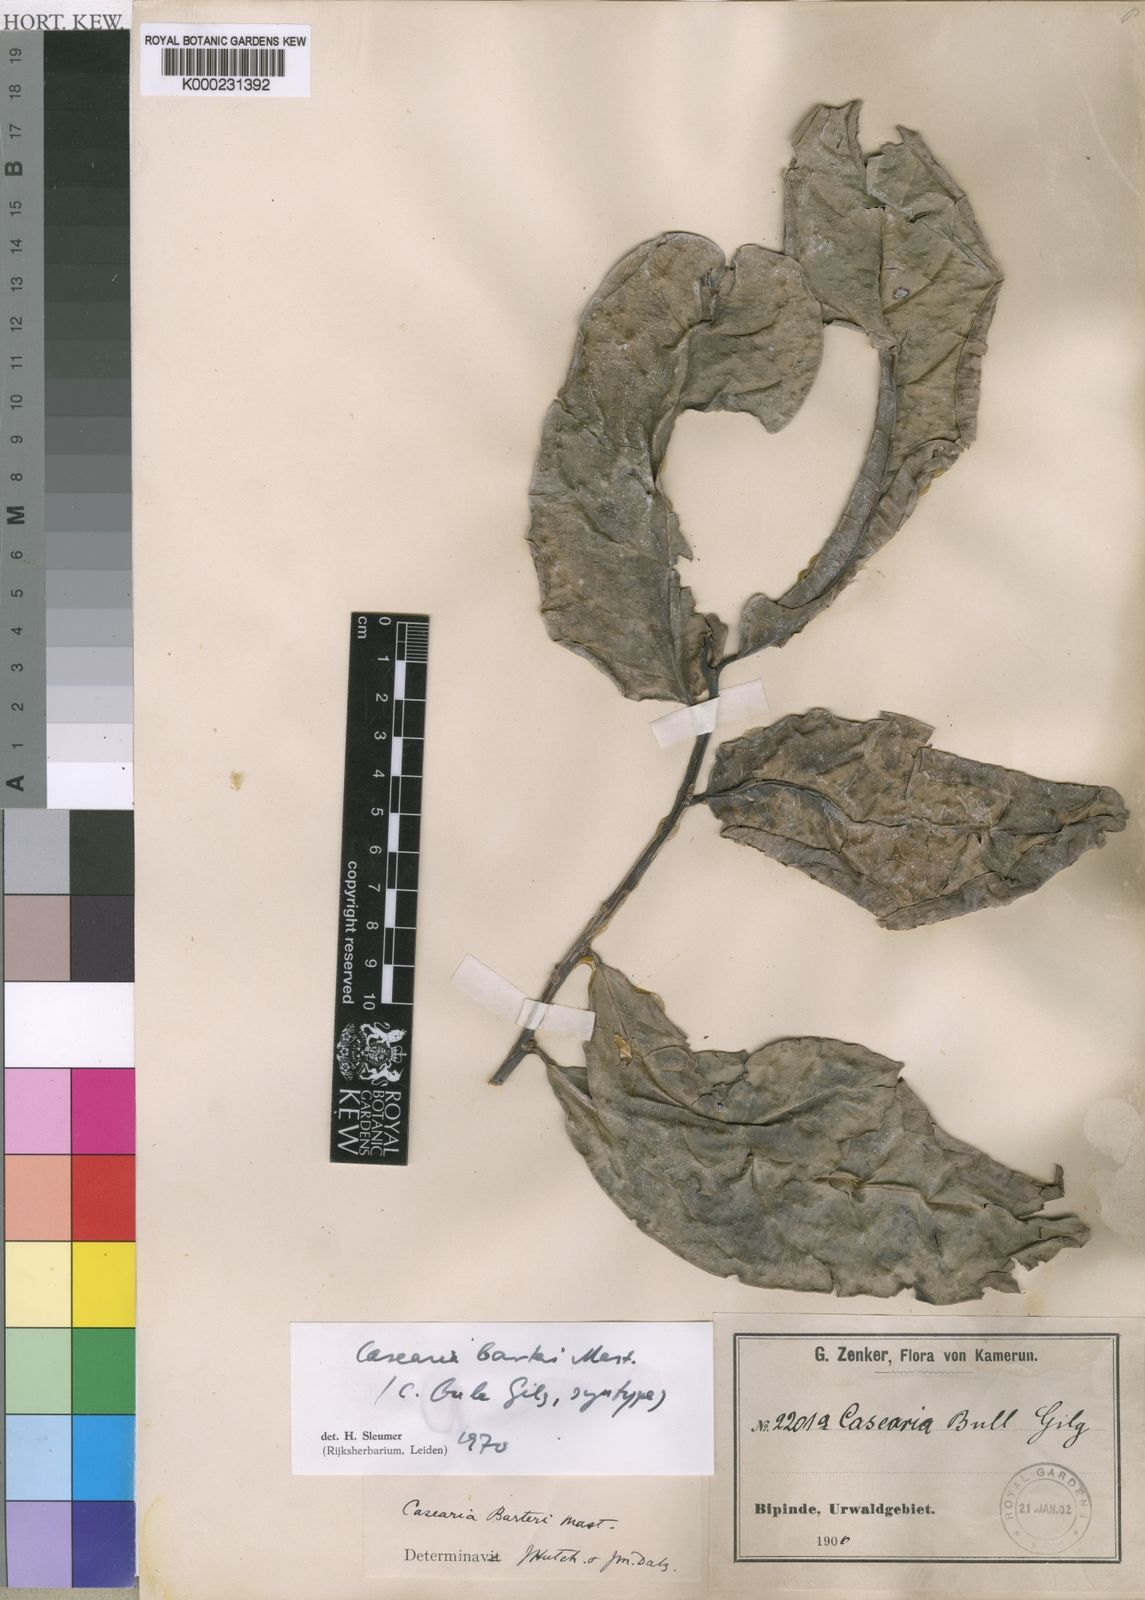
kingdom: Plantae
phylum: Tracheophyta
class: Magnoliopsida
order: Malpighiales
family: Salicaceae
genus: Casearia
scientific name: Casearia barteri
